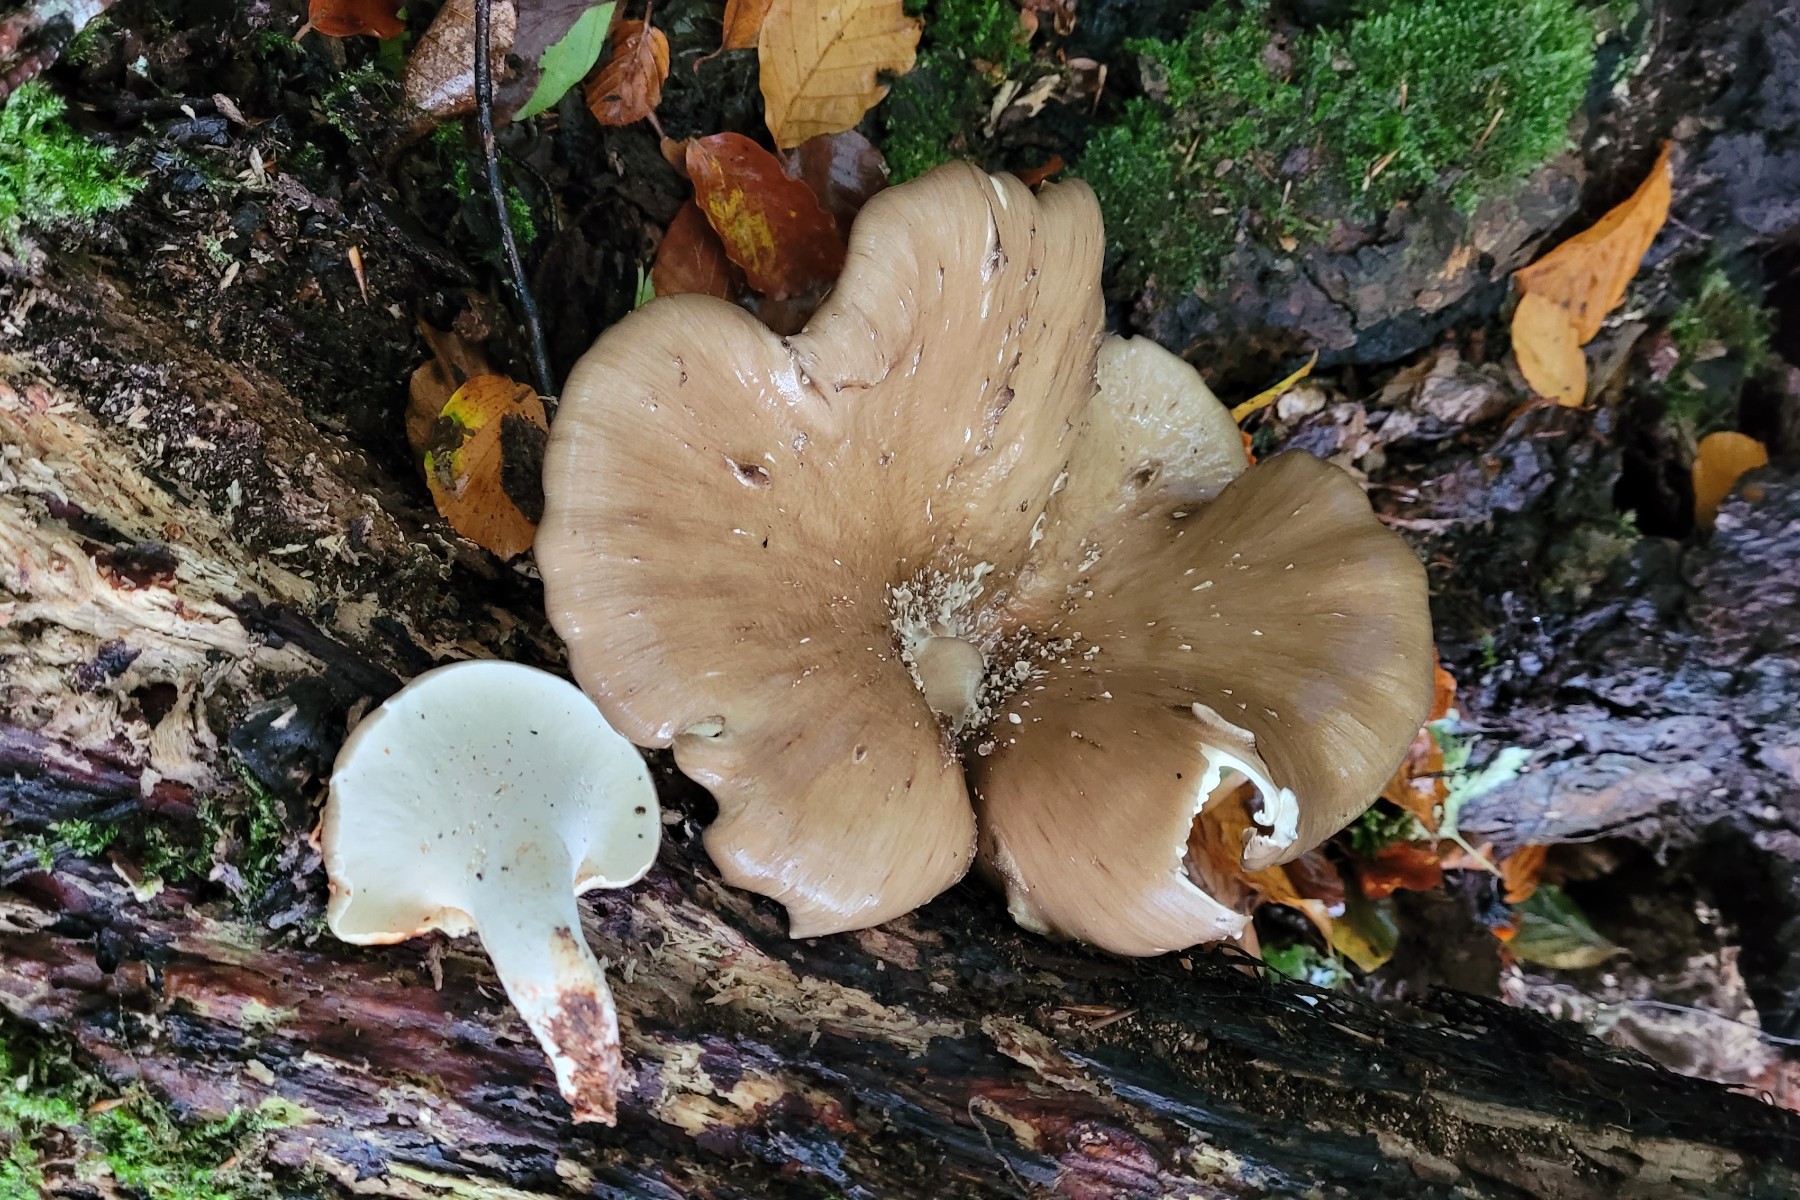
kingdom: Fungi
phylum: Basidiomycota
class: Agaricomycetes
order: Polyporales
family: Polyporaceae
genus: Picipes
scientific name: Picipes badius
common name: kastaniebrun stilkporesvamp
